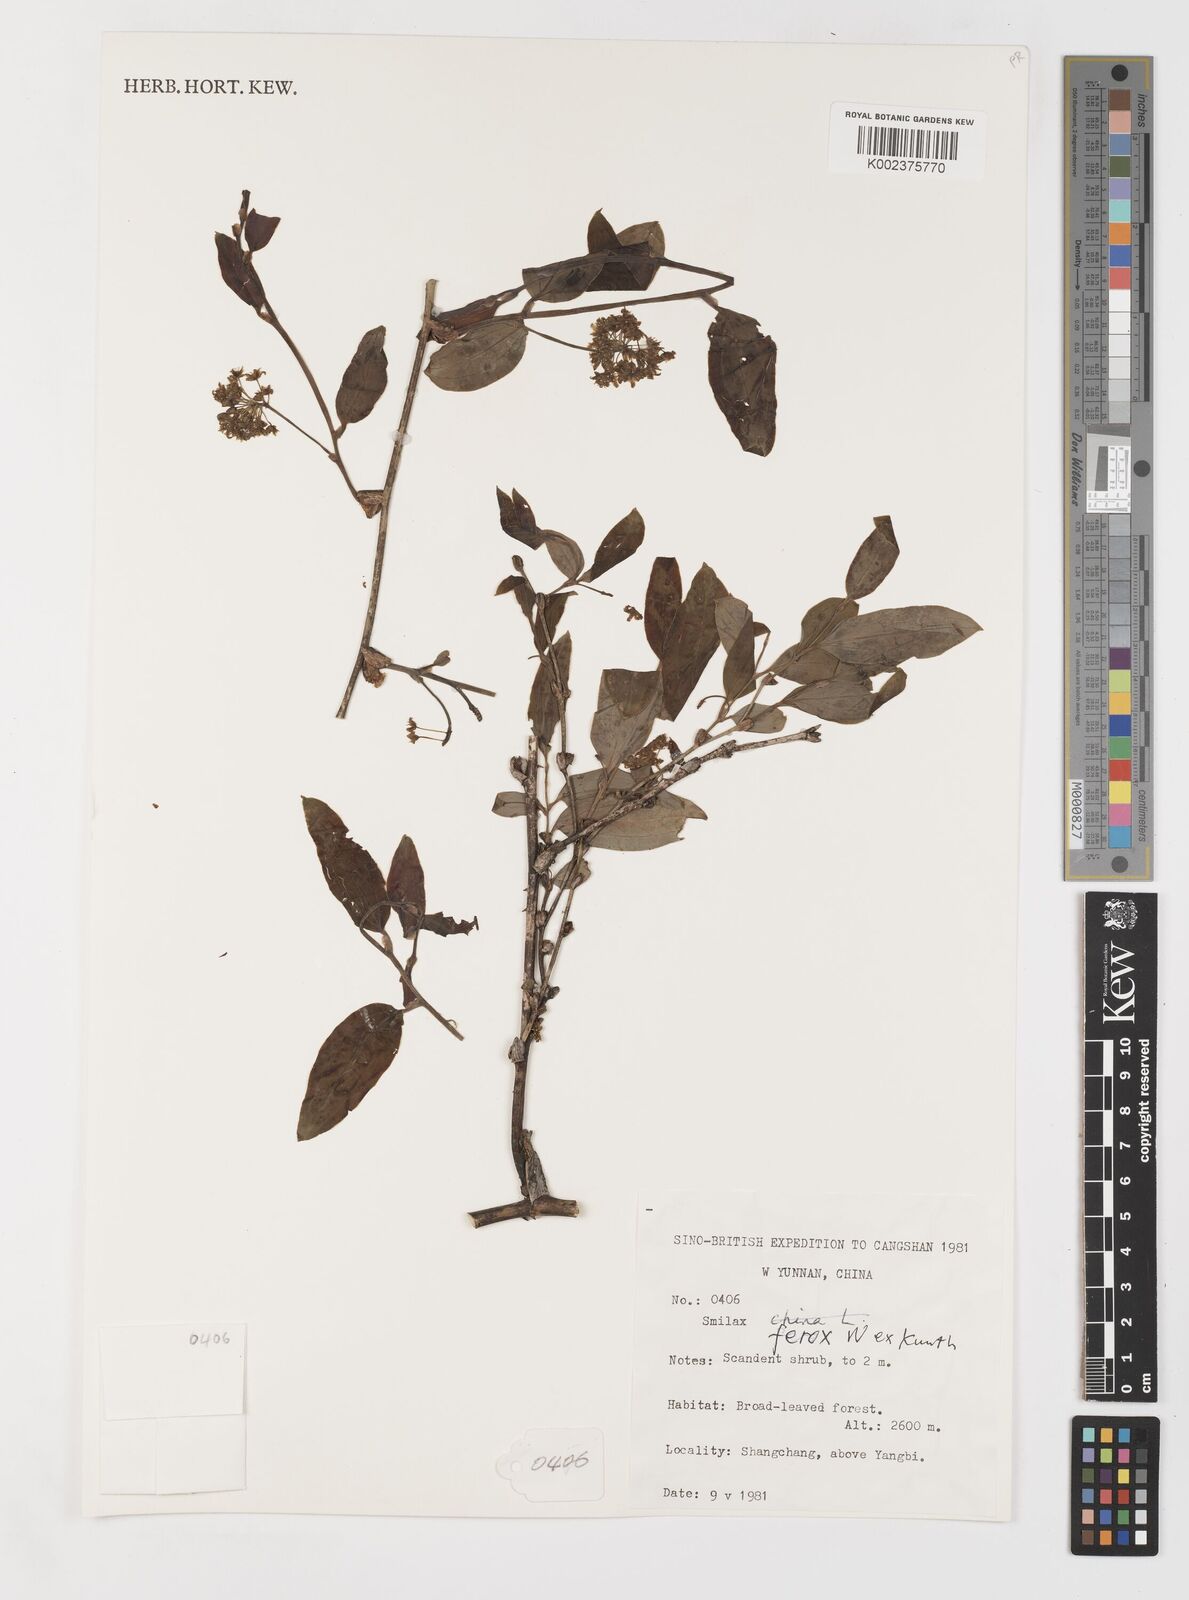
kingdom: Plantae
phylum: Tracheophyta
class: Liliopsida
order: Liliales
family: Smilacaceae
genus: Smilax
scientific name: Smilax china
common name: Chinaroot
